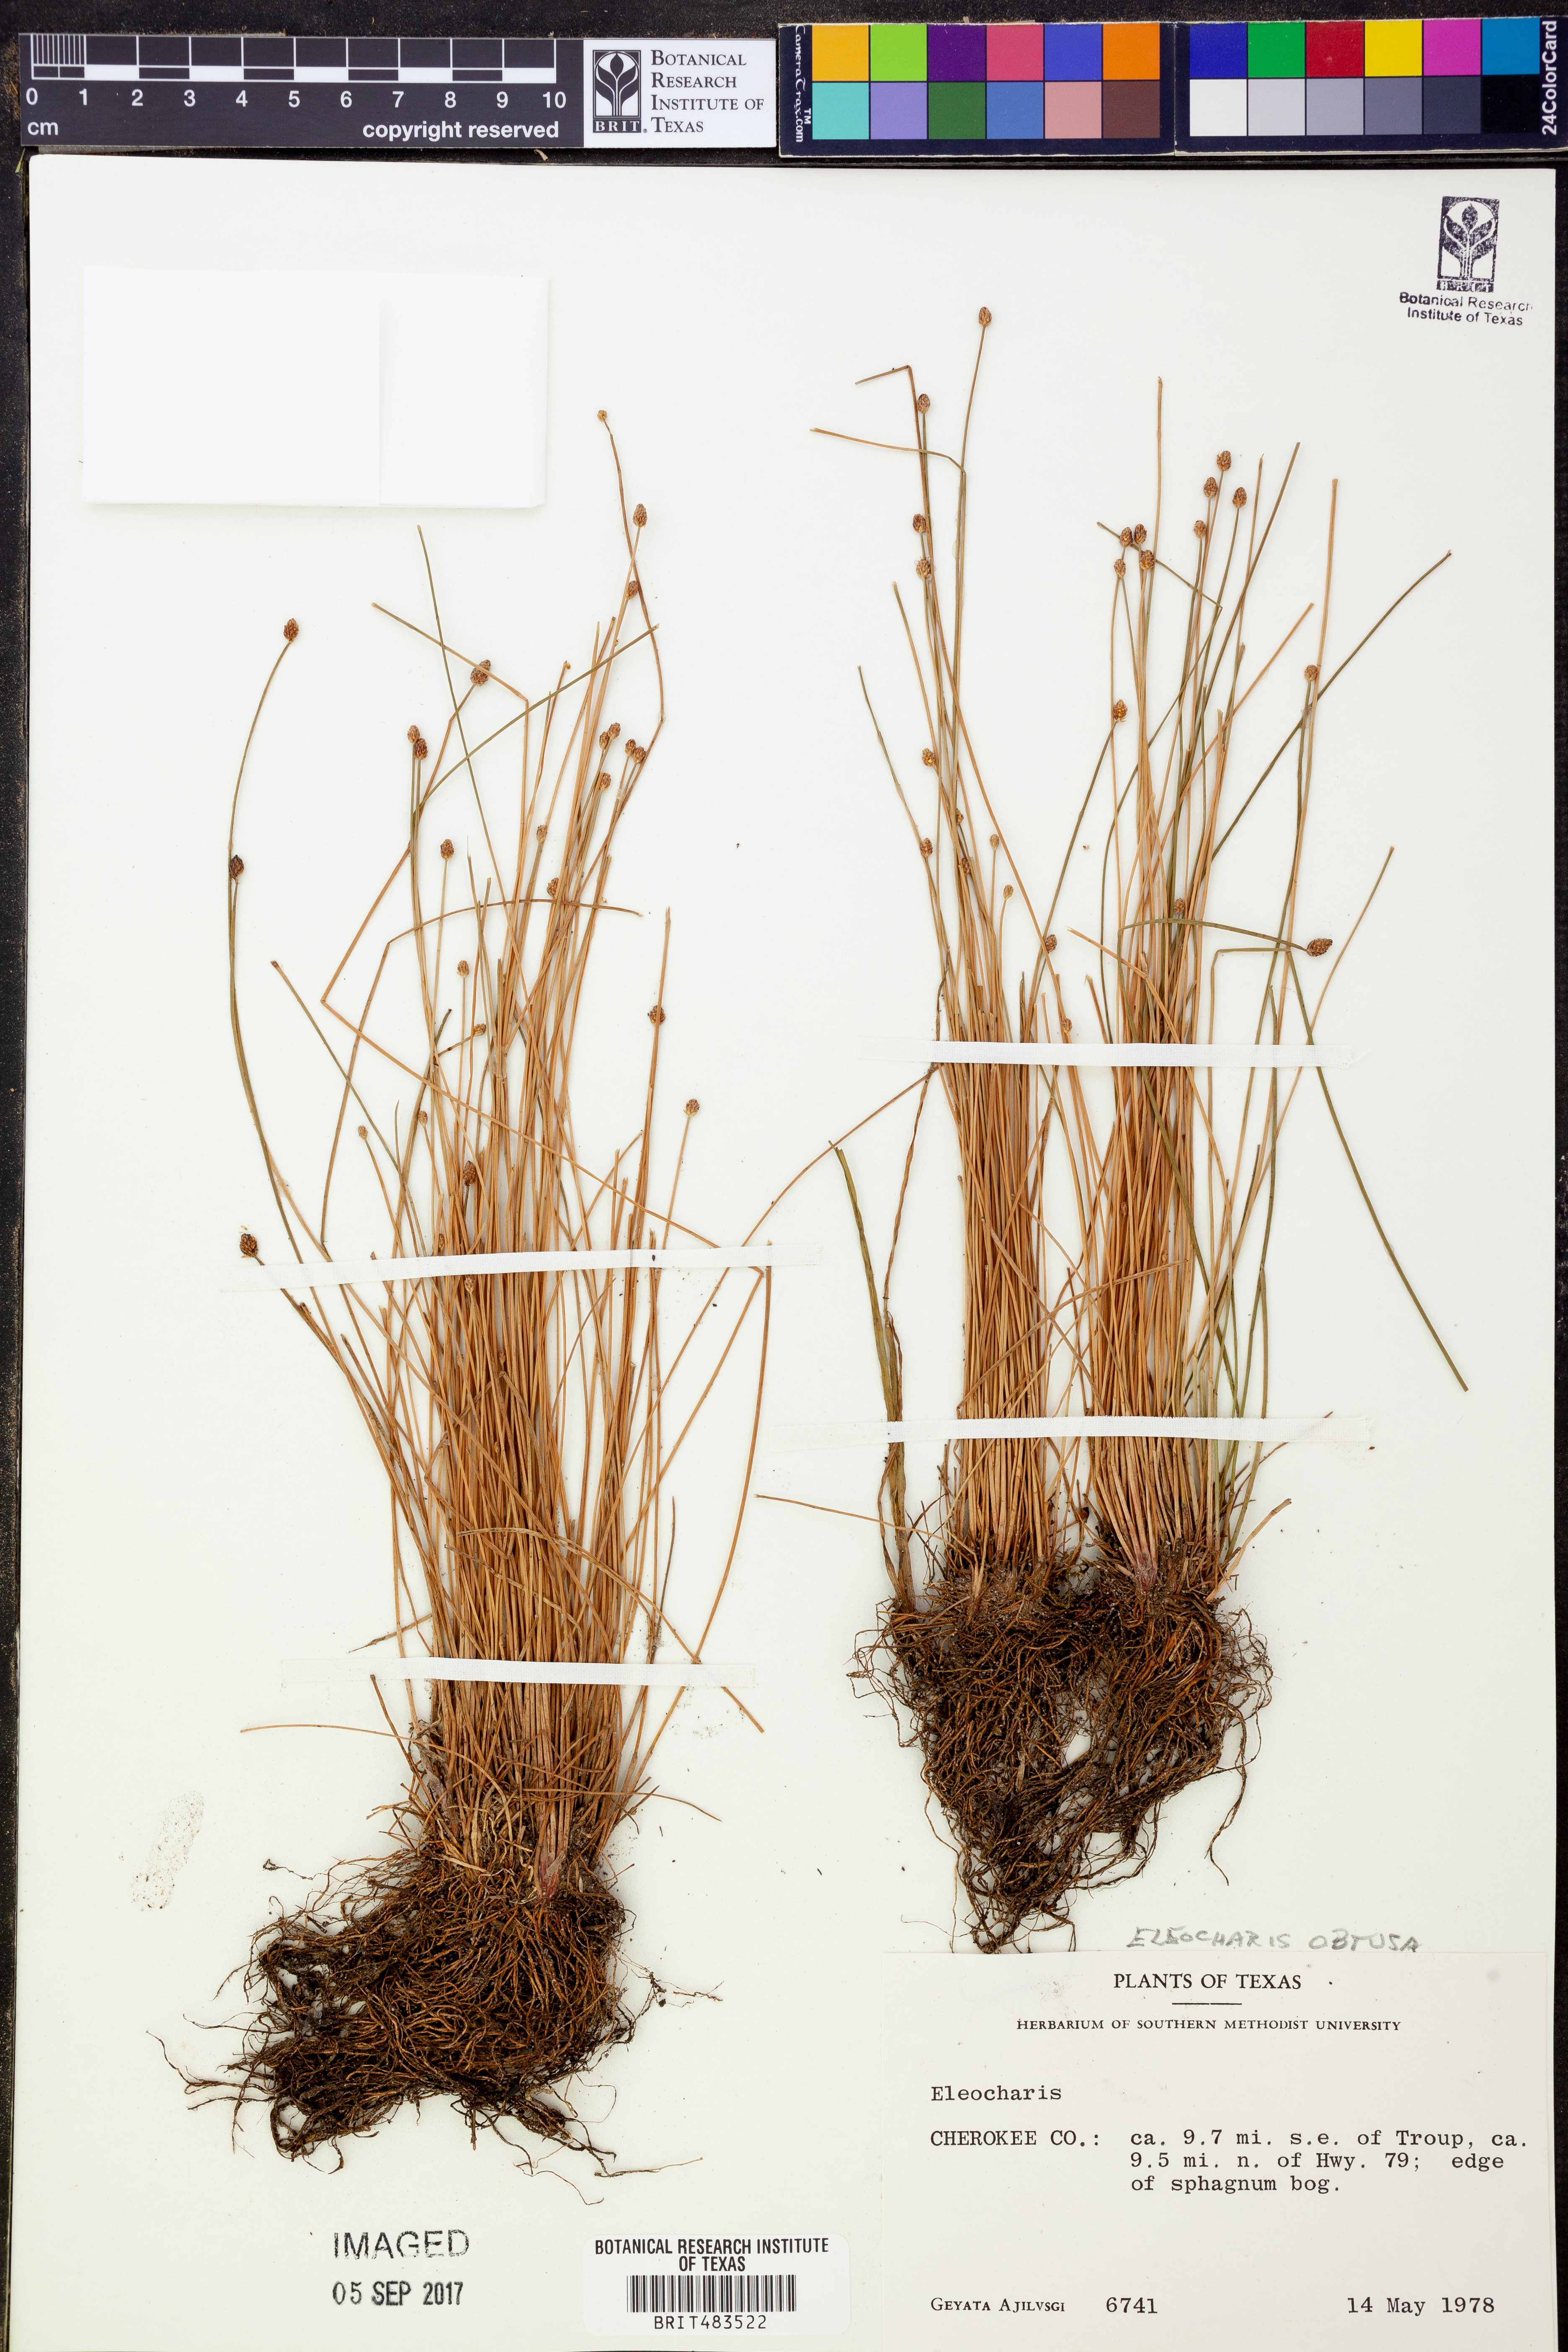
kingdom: Plantae
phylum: Tracheophyta
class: Liliopsida
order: Poales
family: Cyperaceae
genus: Eleocharis
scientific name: Eleocharis
